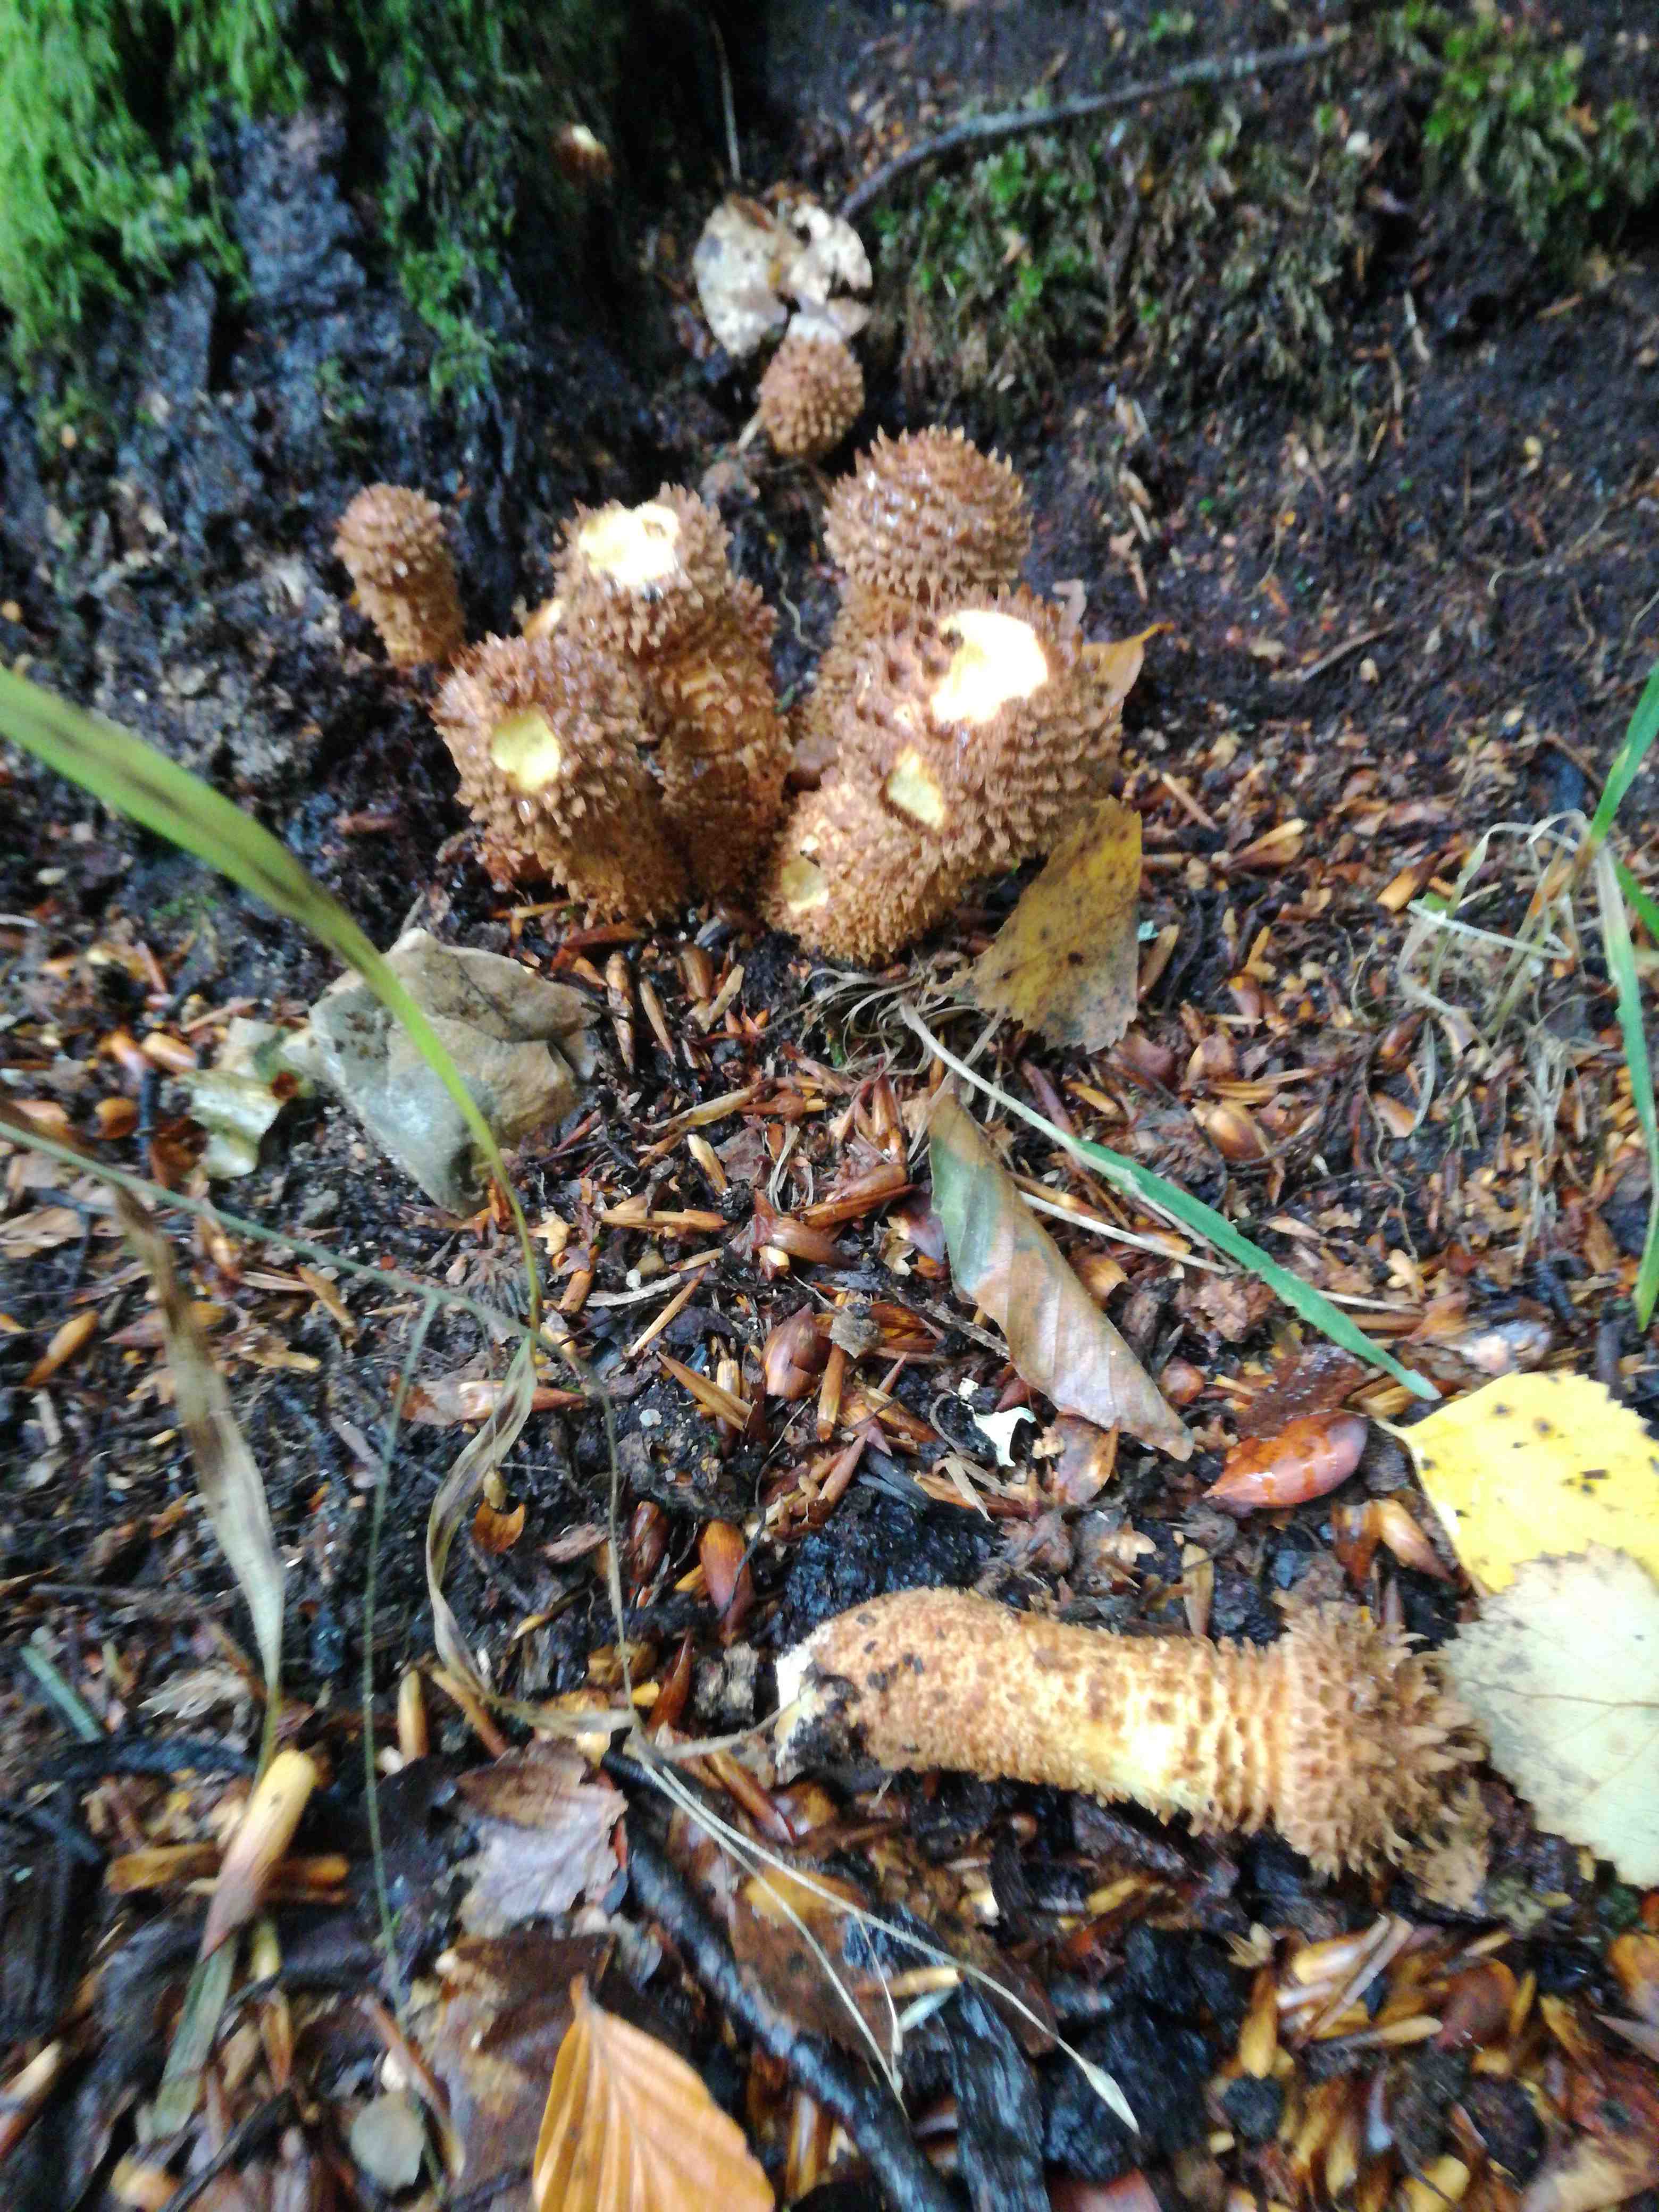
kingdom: Fungi
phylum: Basidiomycota
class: Agaricomycetes
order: Agaricales
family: Strophariaceae
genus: Pholiota
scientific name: Pholiota squarrosa
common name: krumskællet skælhat
